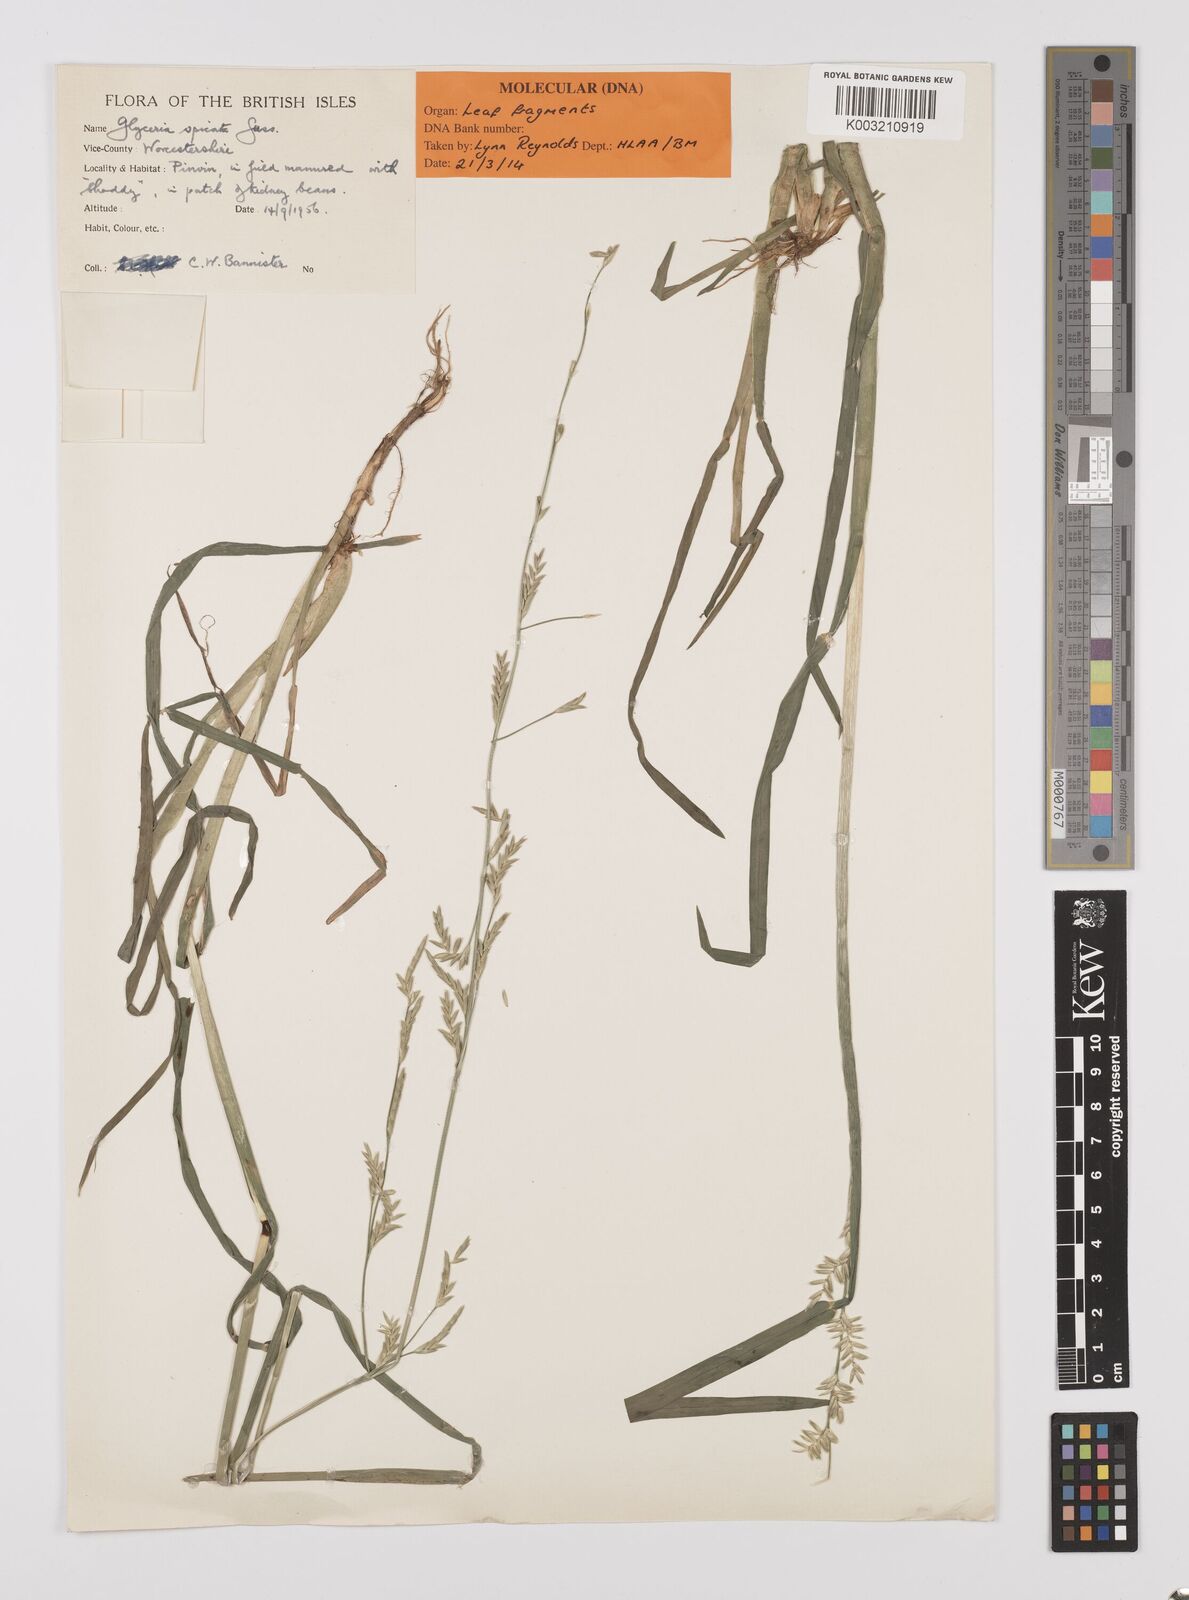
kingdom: Plantae
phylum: Tracheophyta
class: Liliopsida
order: Poales
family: Poaceae
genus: Glyceria
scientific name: Glyceria spicata
